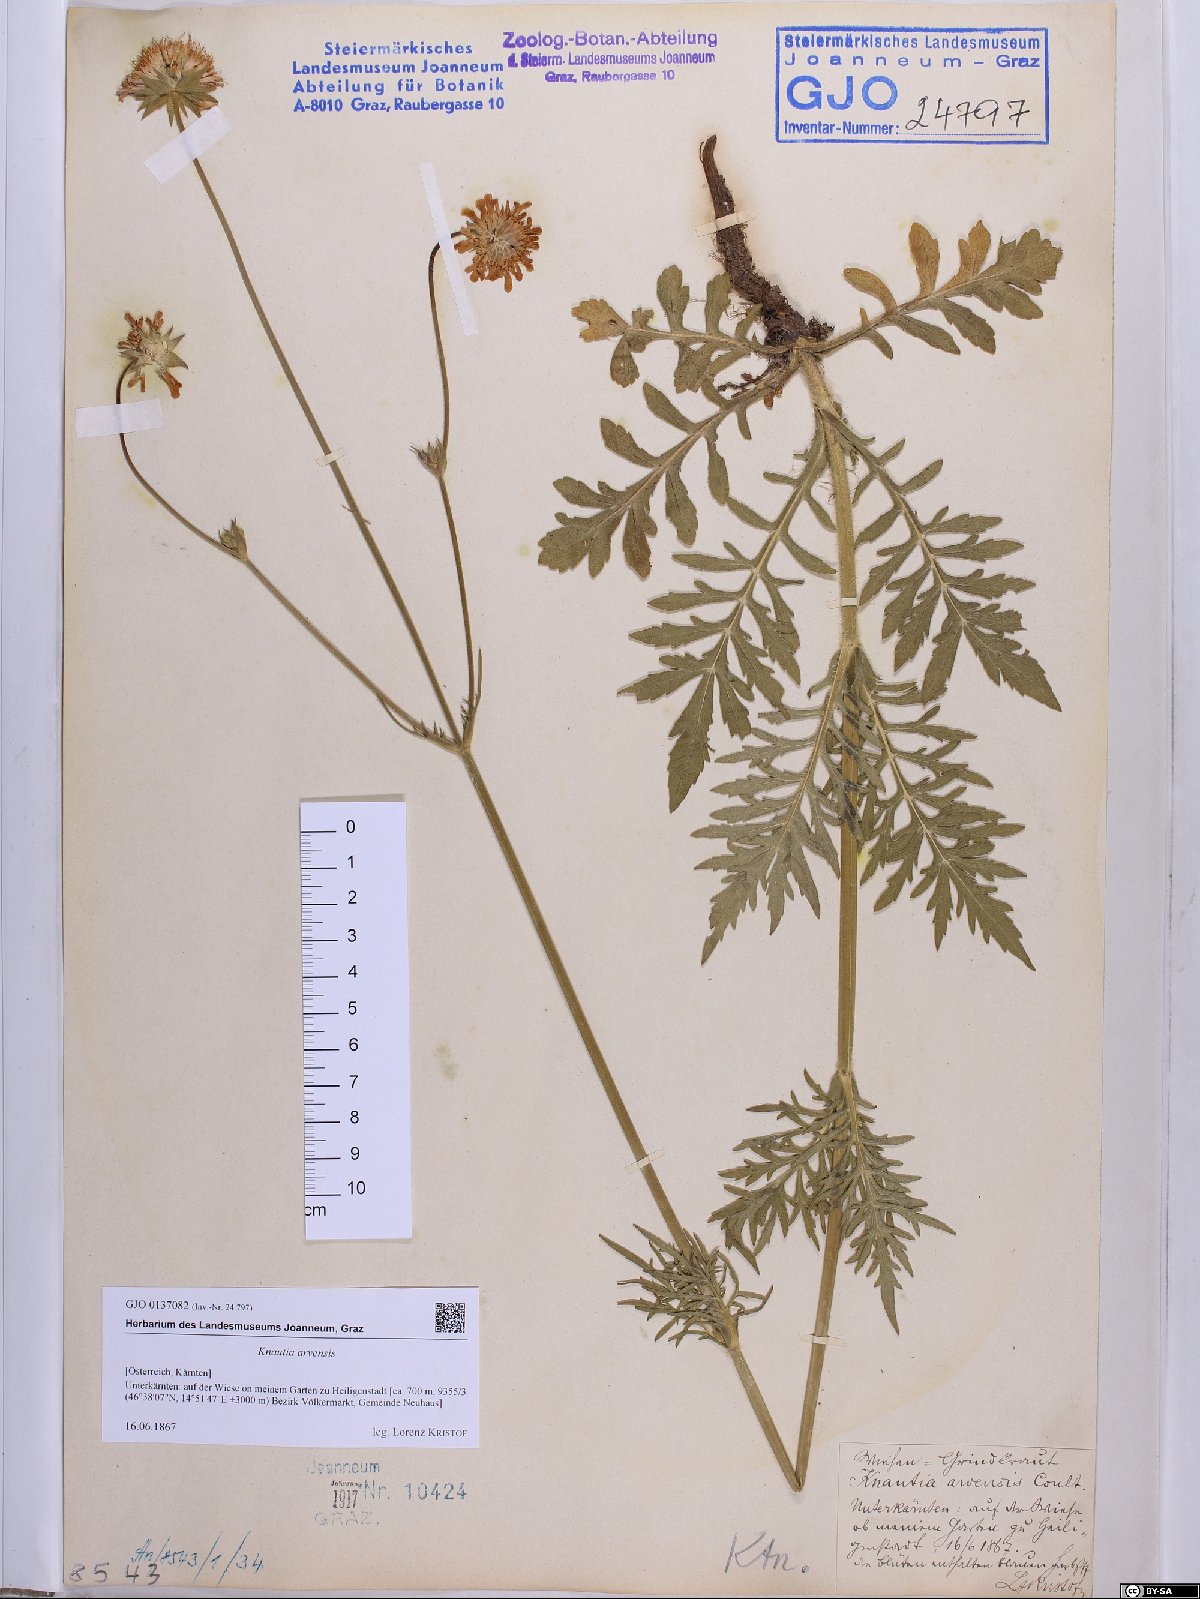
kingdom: Plantae
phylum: Tracheophyta
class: Magnoliopsida
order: Dipsacales
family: Caprifoliaceae
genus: Knautia
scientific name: Knautia arvensis
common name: Field scabiosa
